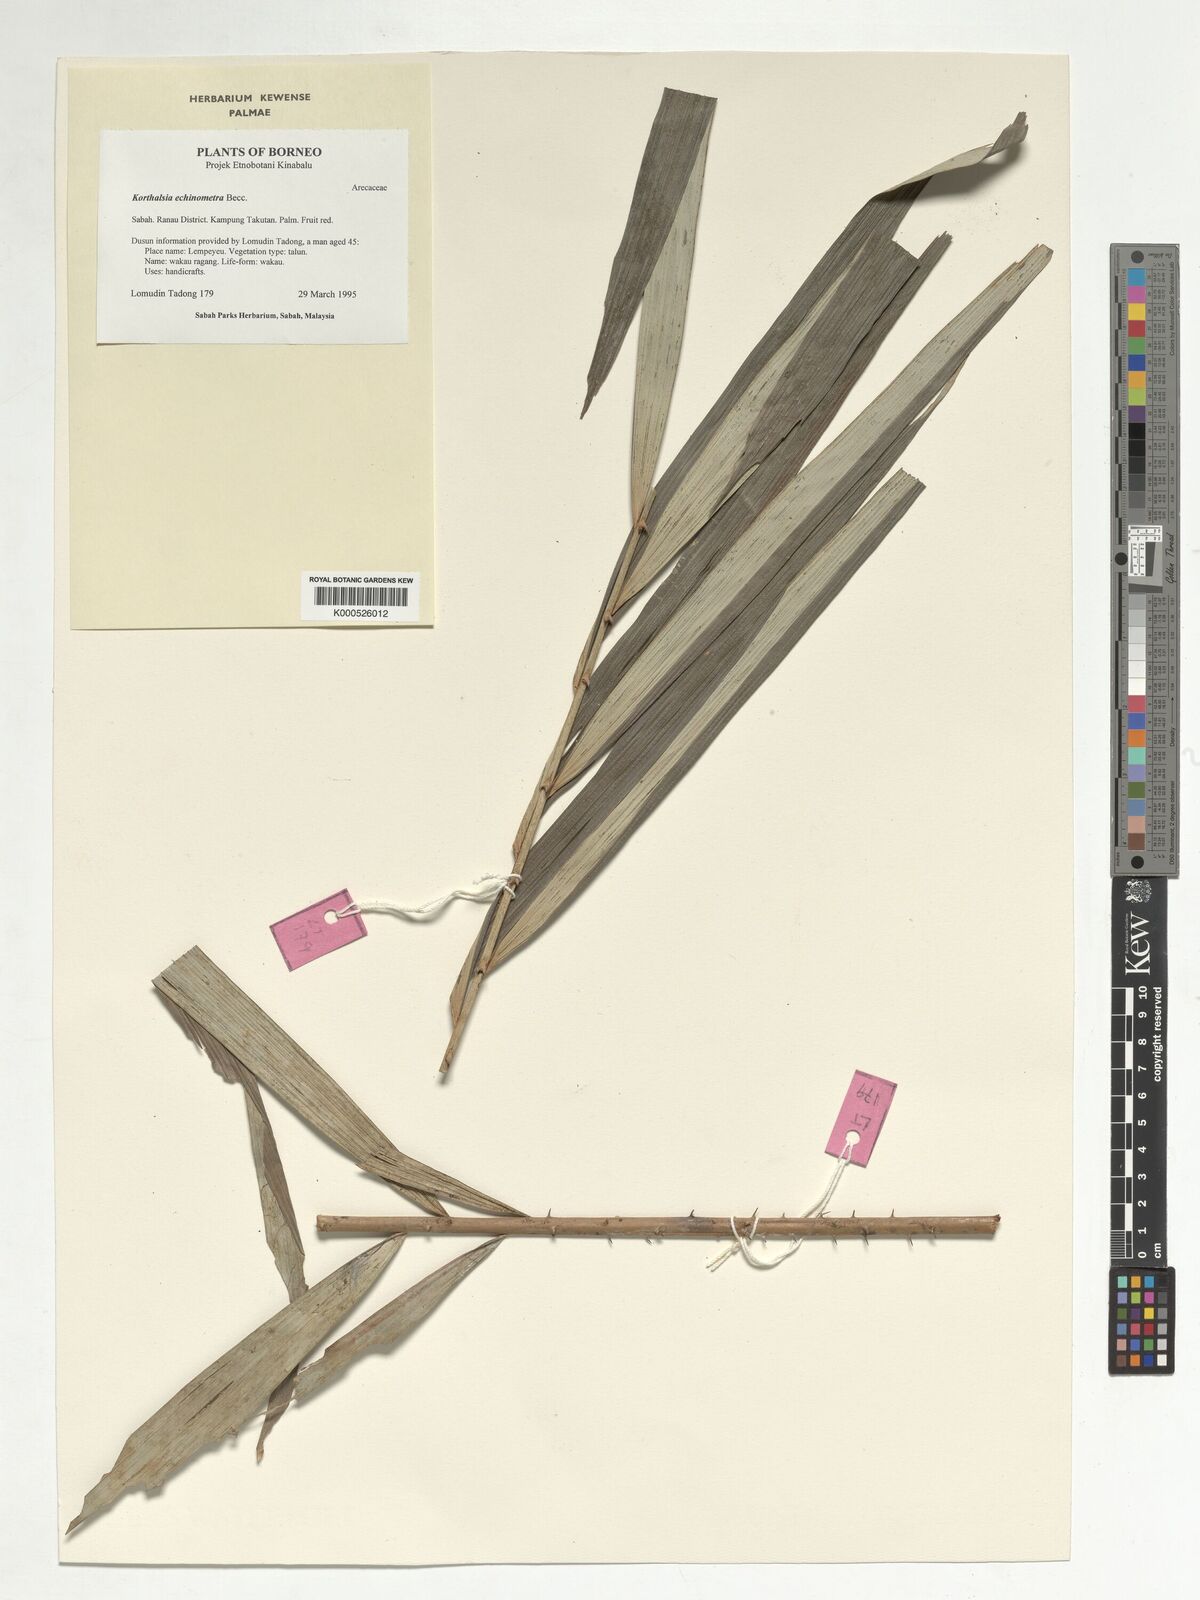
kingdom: Plantae
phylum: Tracheophyta
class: Liliopsida
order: Arecales
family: Arecaceae
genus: Korthalsia
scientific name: Korthalsia echinometra
